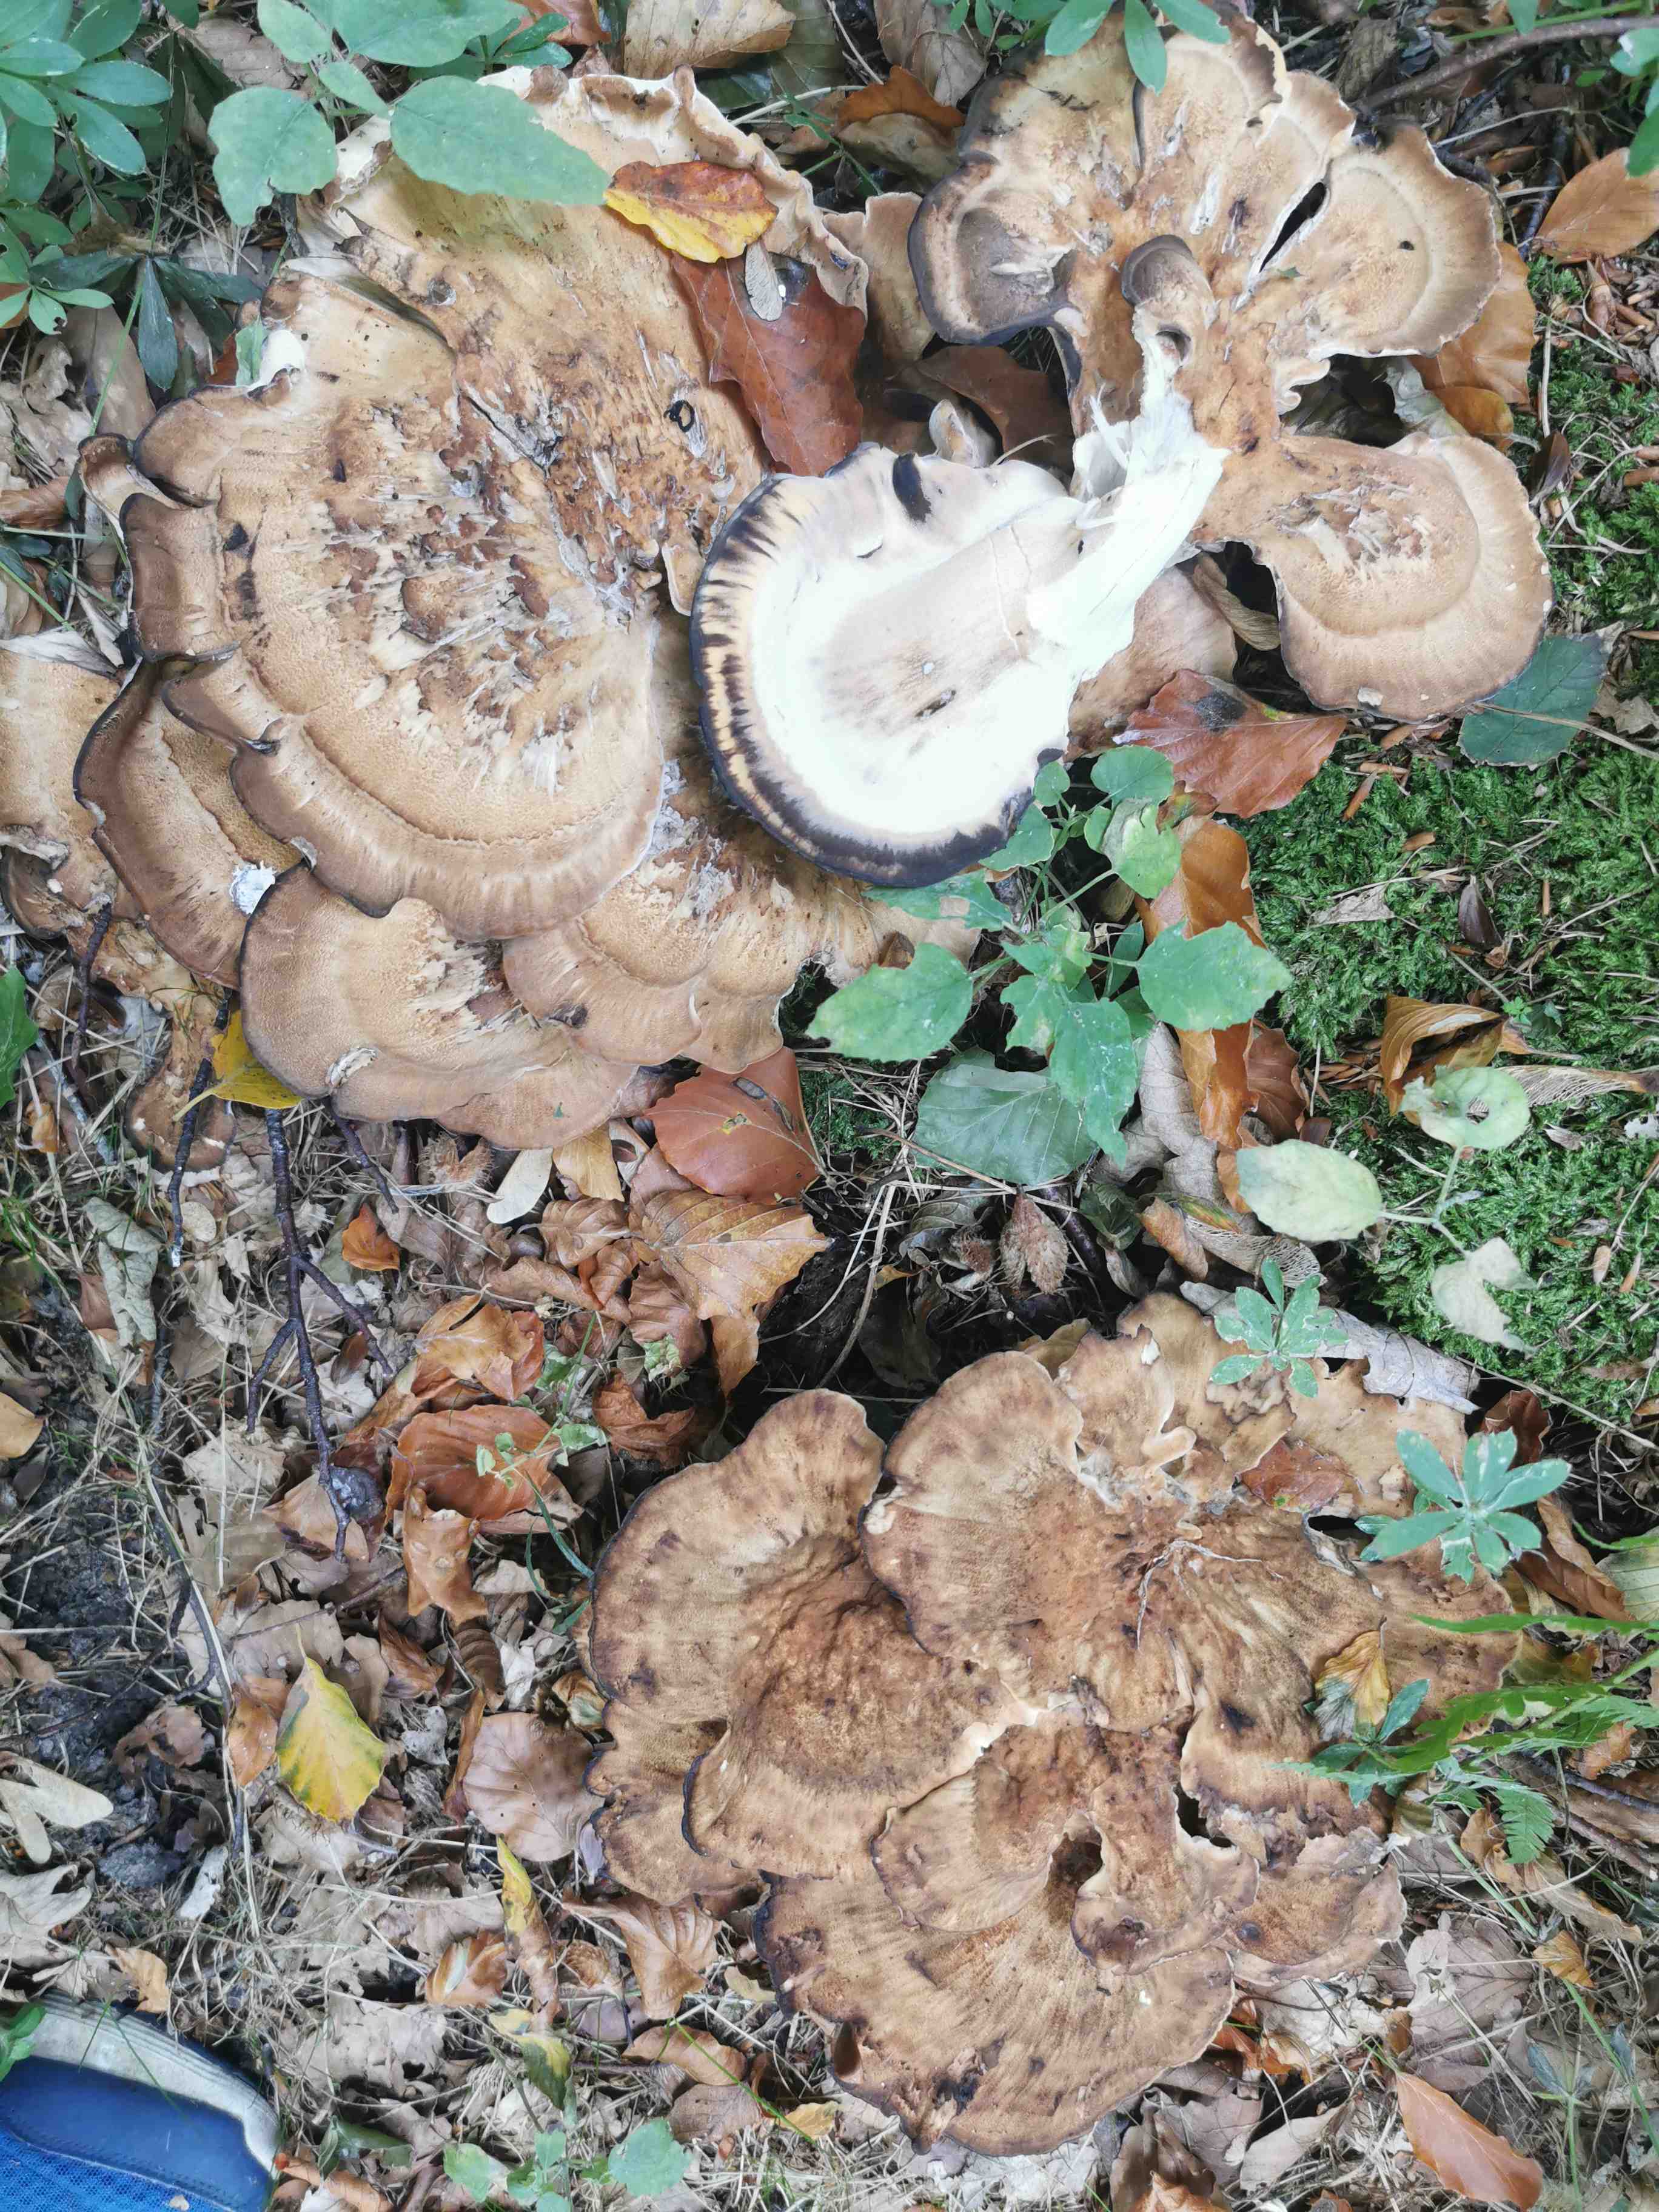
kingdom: Fungi
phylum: Basidiomycota
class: Agaricomycetes
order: Polyporales
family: Meripilaceae
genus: Meripilus
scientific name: Meripilus giganteus
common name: kæmpeporesvamp
